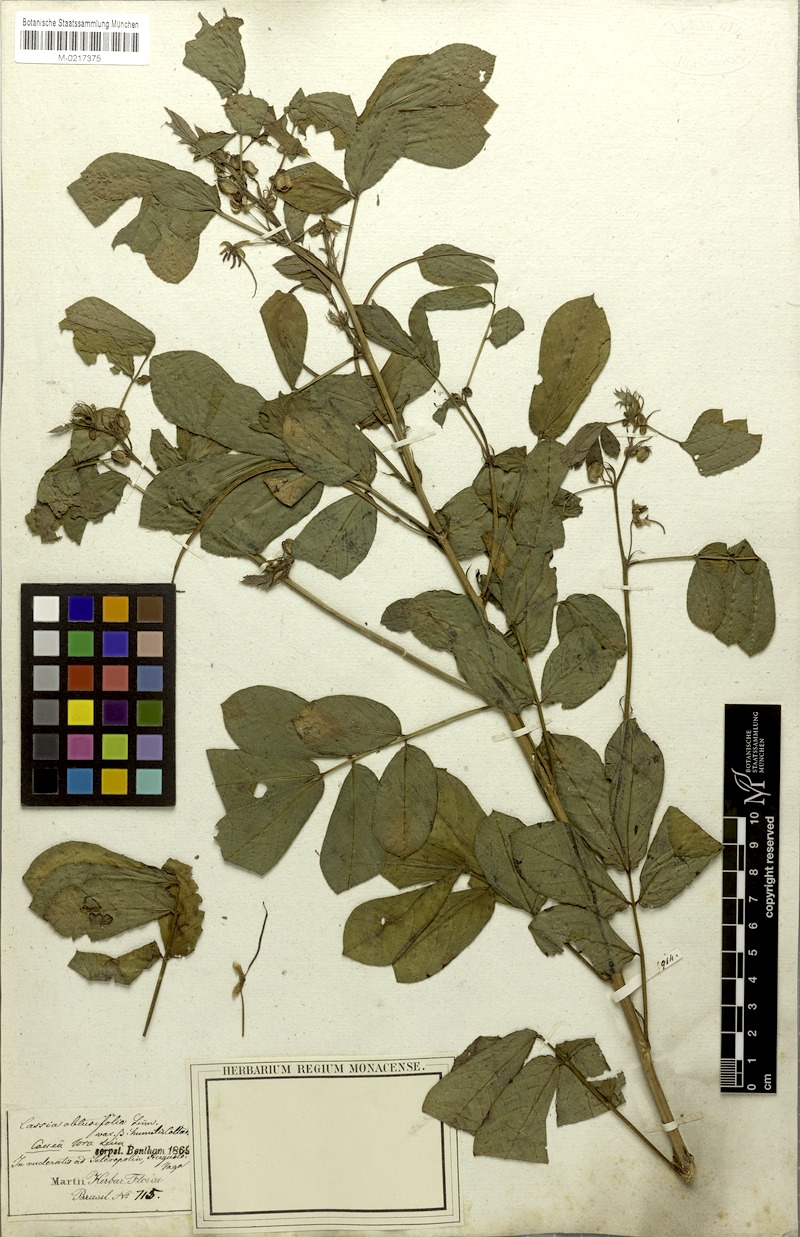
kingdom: Plantae
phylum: Tracheophyta
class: Magnoliopsida
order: Fabales
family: Fabaceae
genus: Senna
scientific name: Senna obtusifolia
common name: Java-bean
